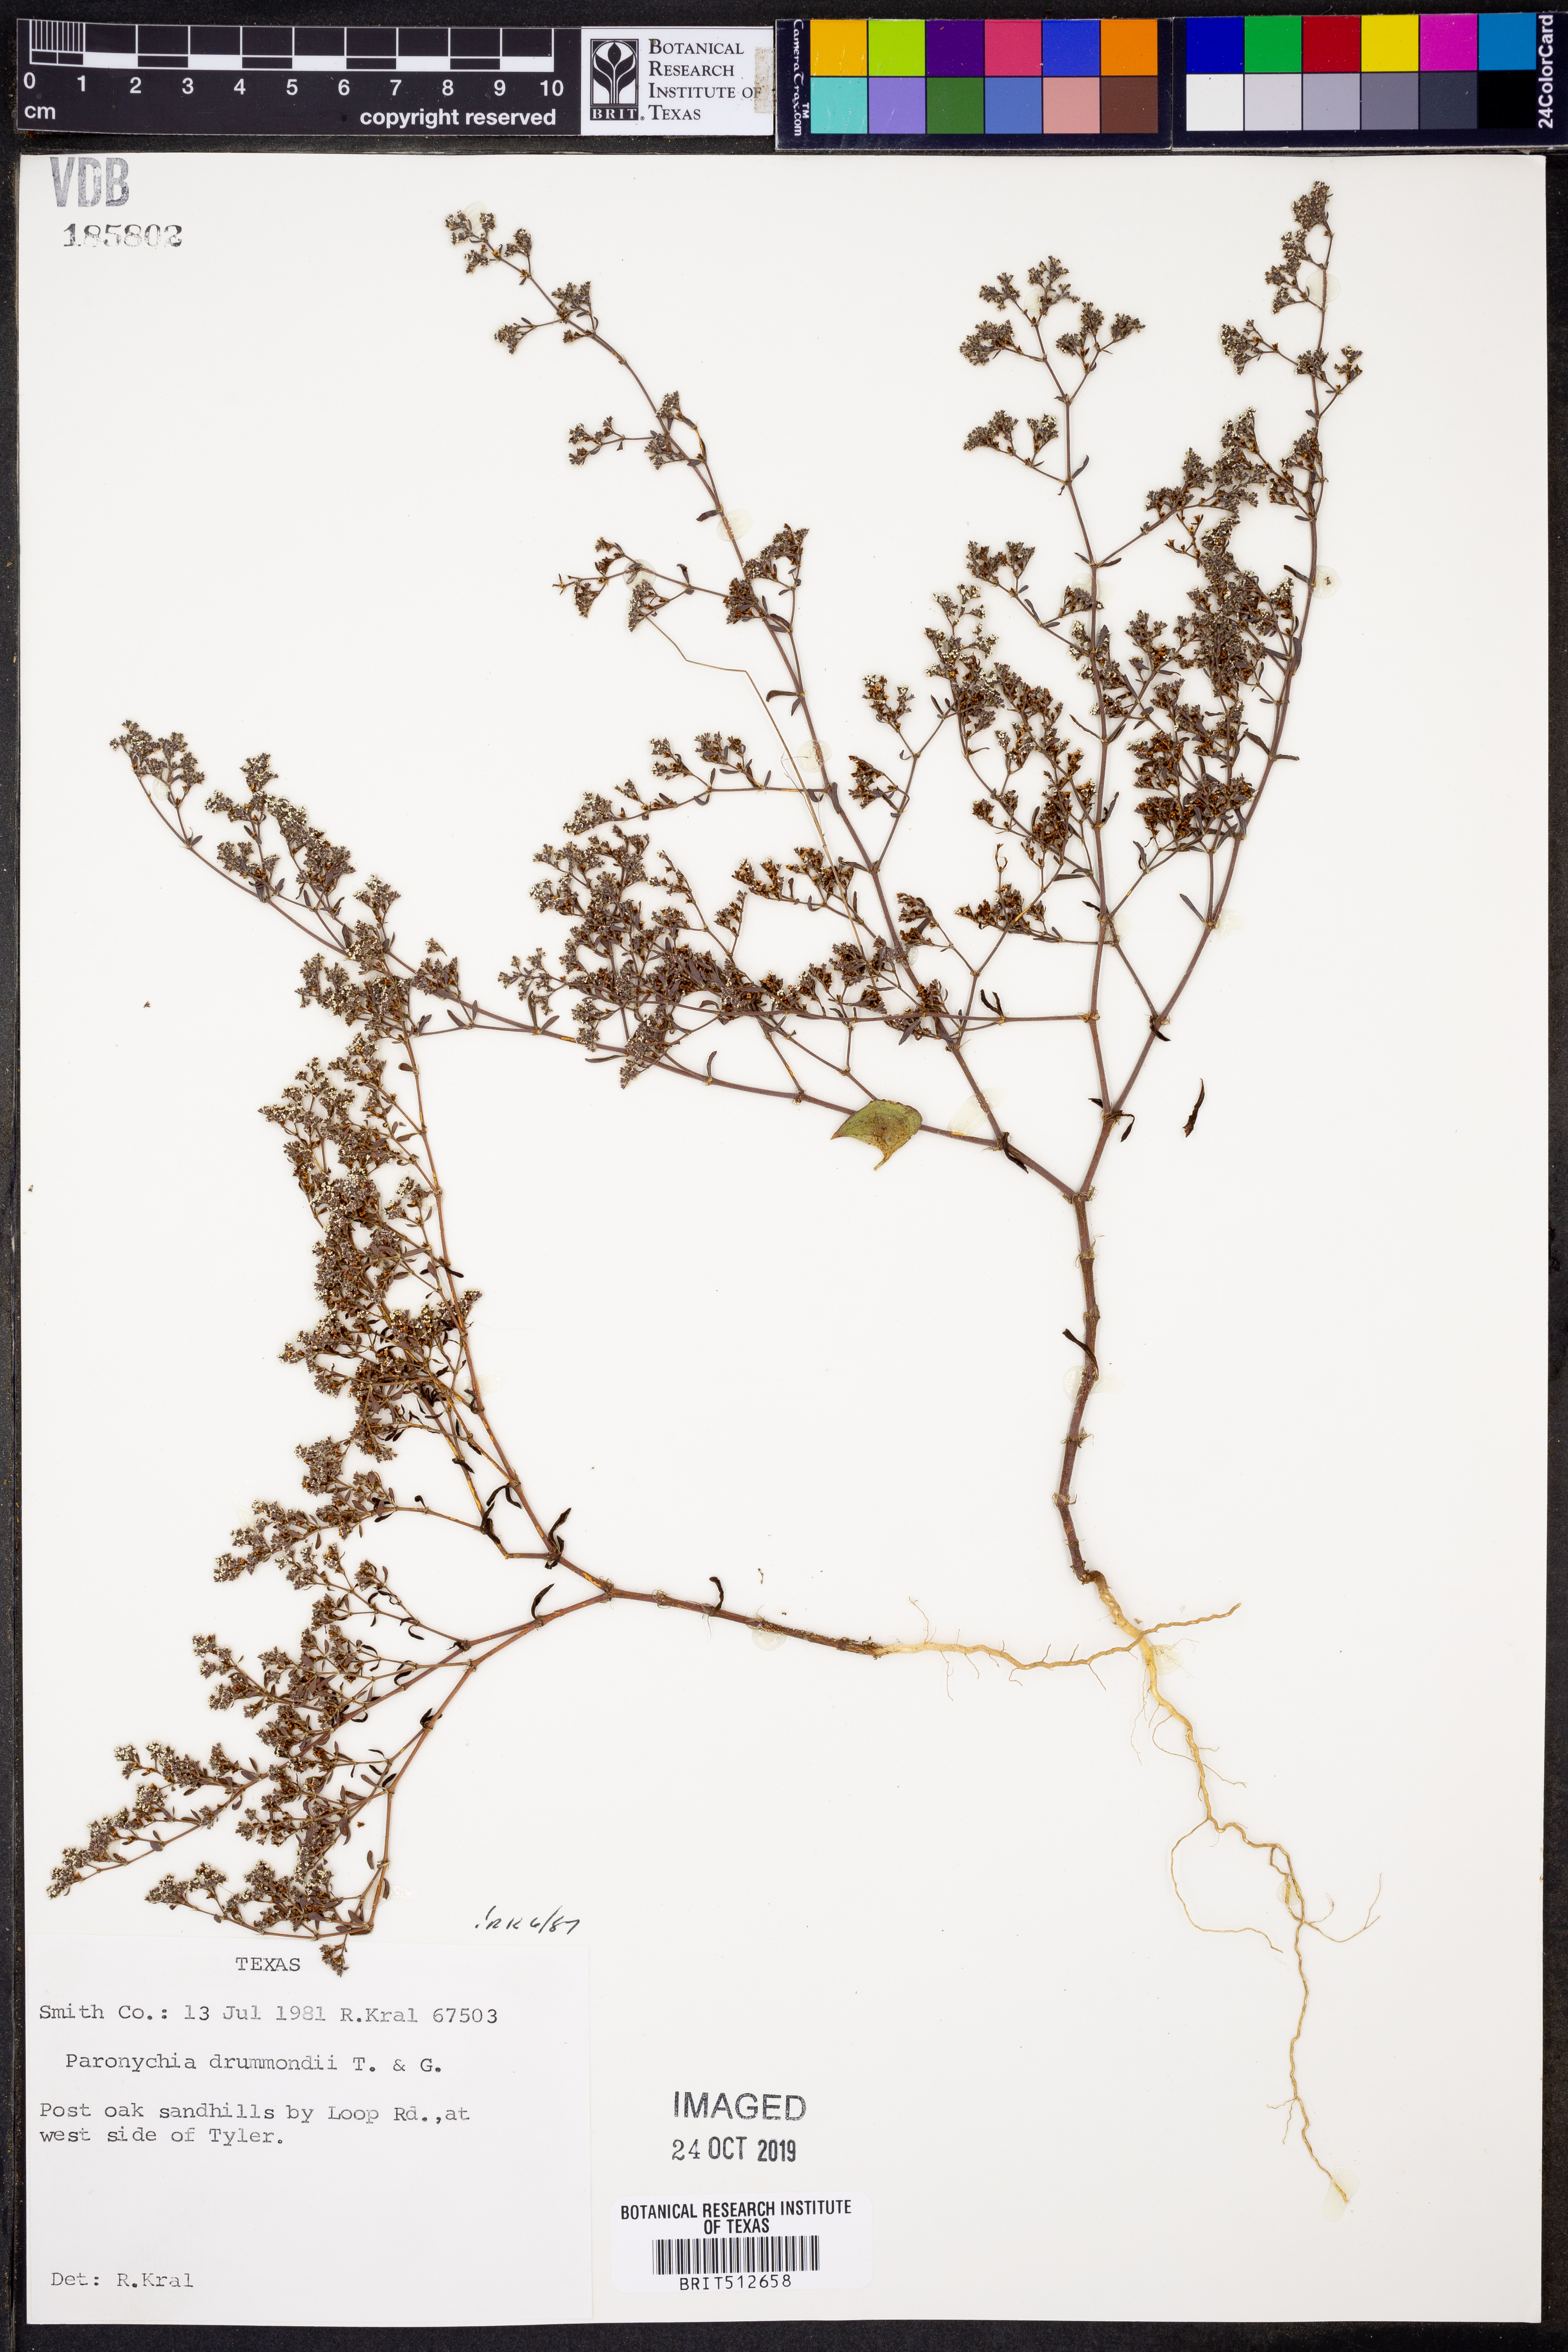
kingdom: Plantae
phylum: Tracheophyta
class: Magnoliopsida
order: Caryophyllales
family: Caryophyllaceae
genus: Paronychia
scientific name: Paronychia drummondii
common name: Drummond's nailwort
